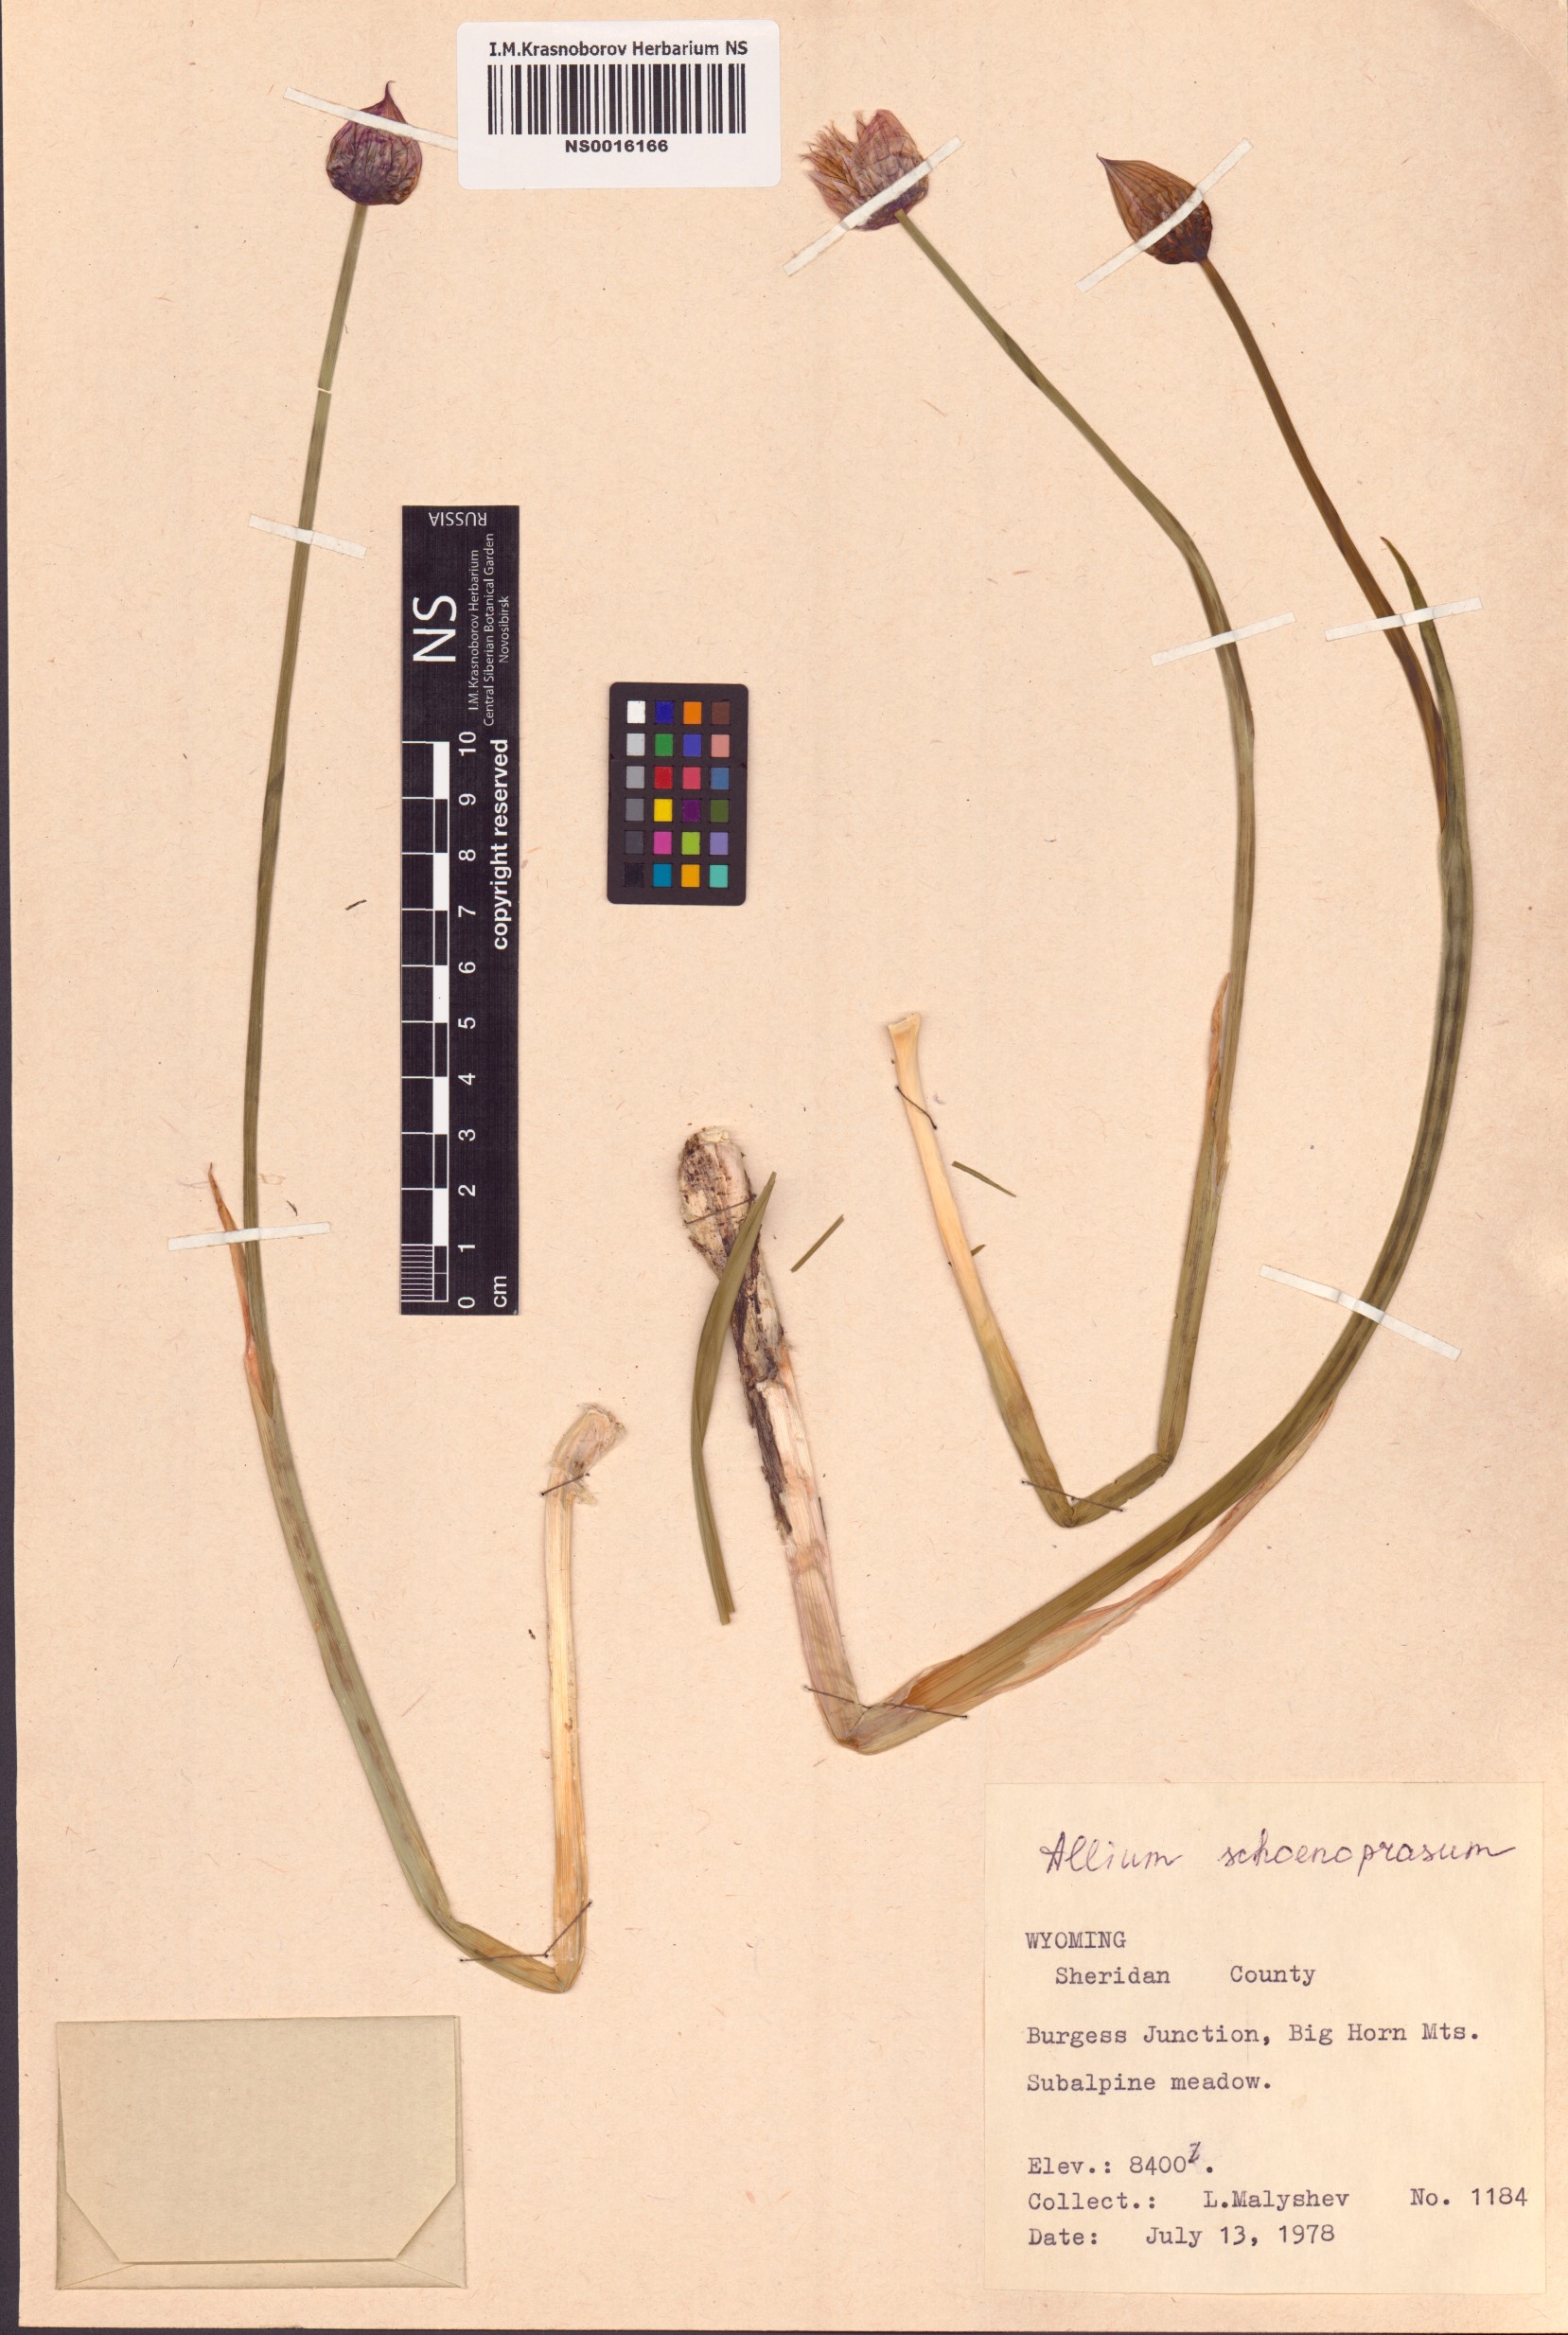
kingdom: Plantae
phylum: Tracheophyta
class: Liliopsida
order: Asparagales
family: Amaryllidaceae
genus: Allium
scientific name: Allium schoenoprasum
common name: Chives
